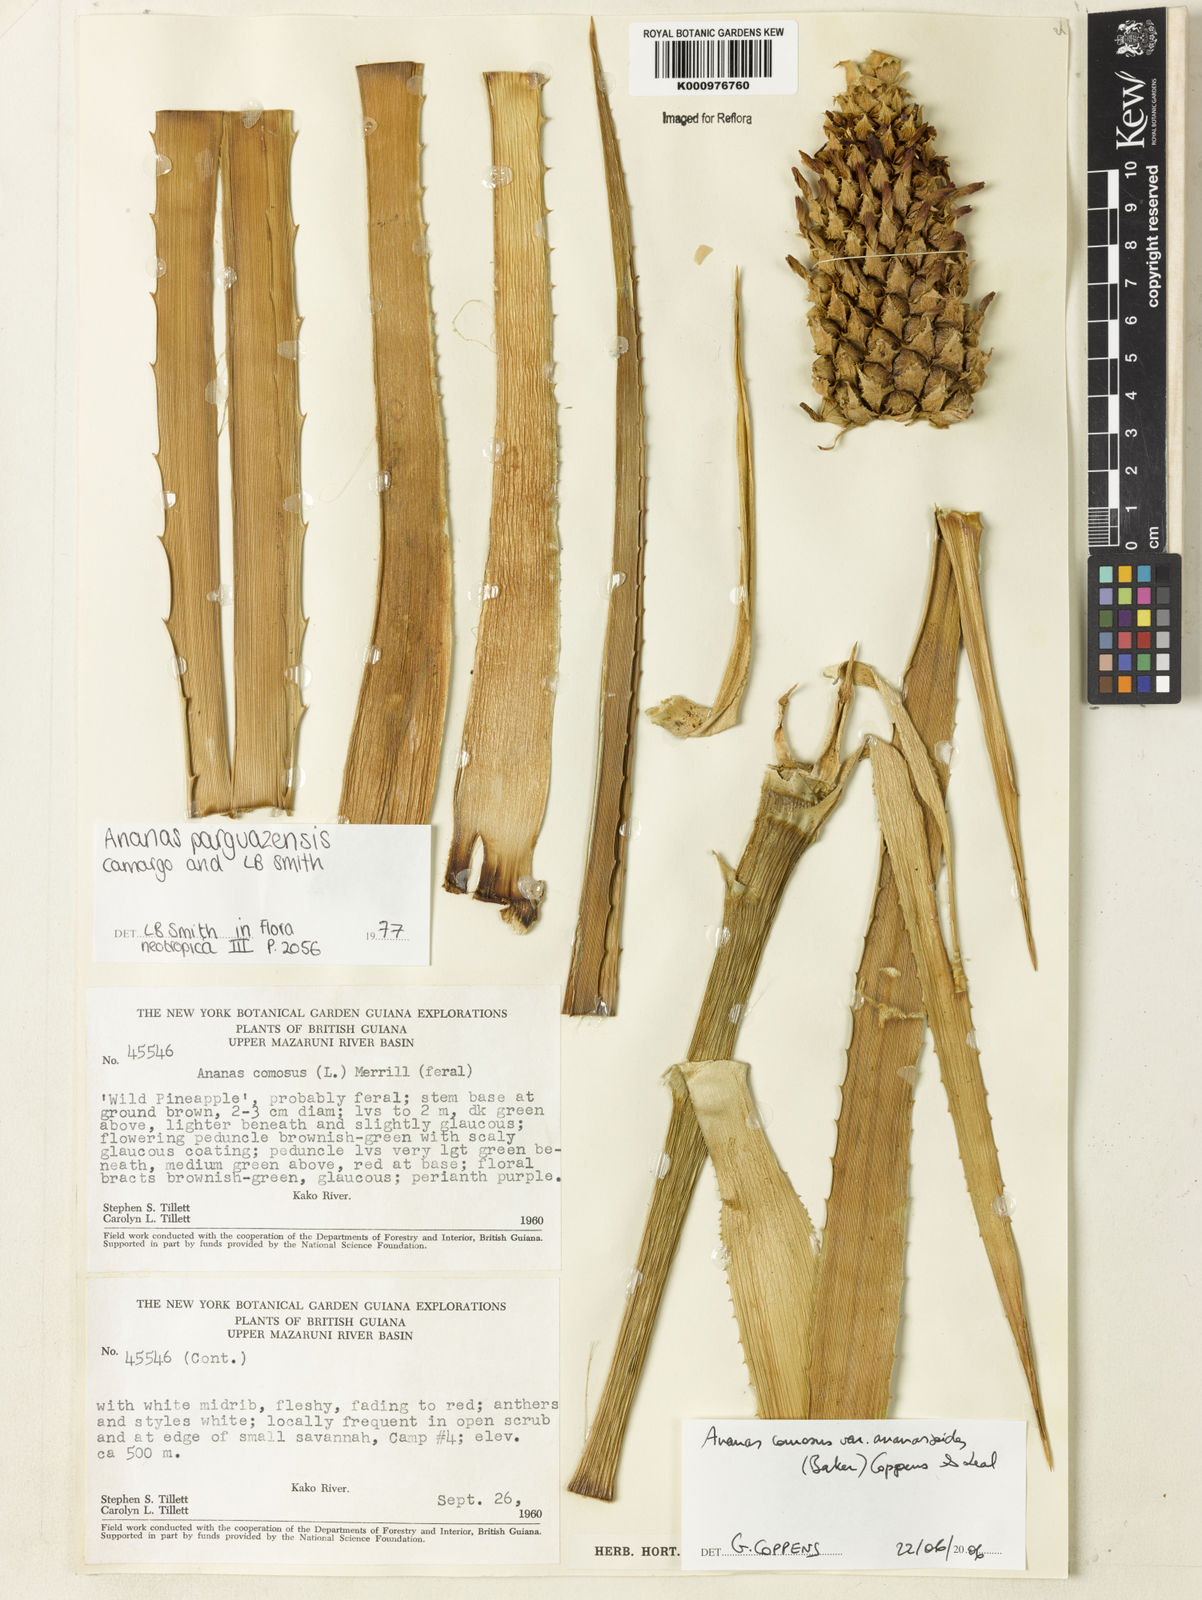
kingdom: Plantae
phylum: Tracheophyta
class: Liliopsida
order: Poales
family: Bromeliaceae
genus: Ananas
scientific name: Ananas comosus
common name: Pineapple
